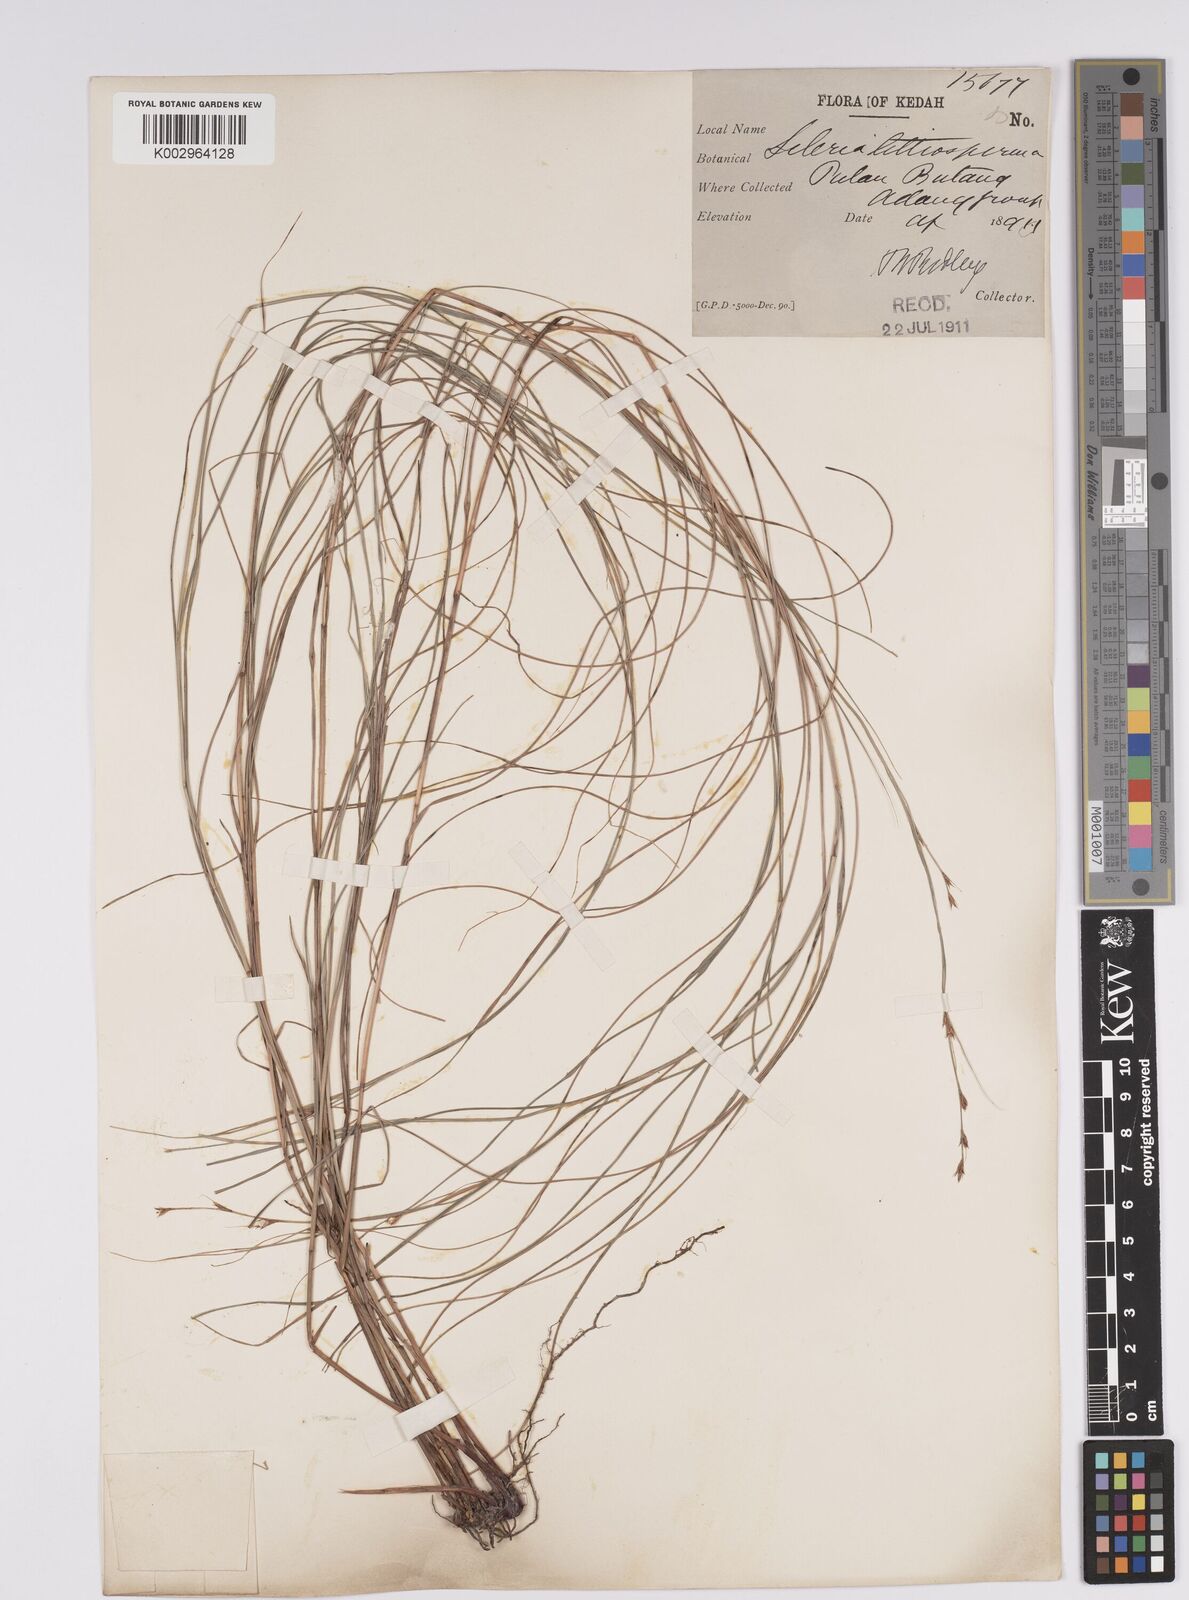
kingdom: Plantae
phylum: Tracheophyta
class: Liliopsida
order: Poales
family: Cyperaceae
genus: Scleria
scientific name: Scleria lithosperma
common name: Florida keys nut-rush
